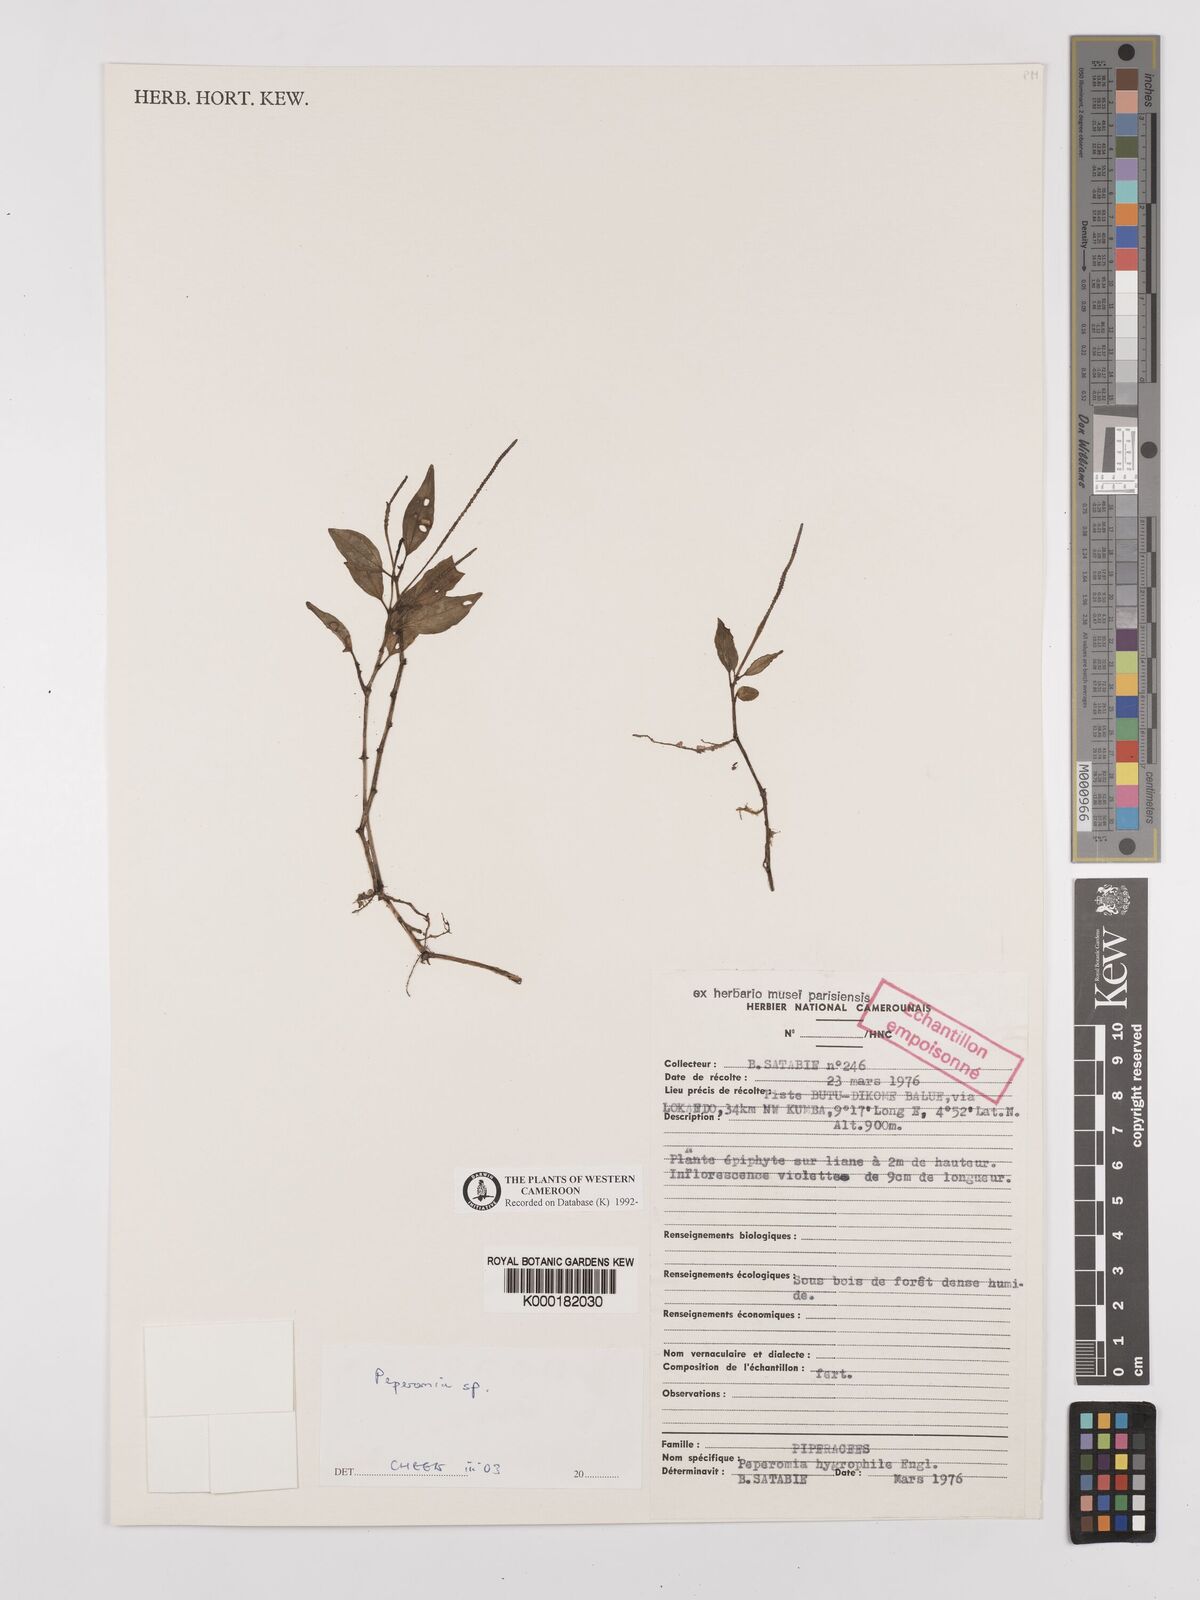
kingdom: Plantae
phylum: Tracheophyta
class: Magnoliopsida
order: Piperales
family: Piperaceae
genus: Peperomia
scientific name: Peperomia
